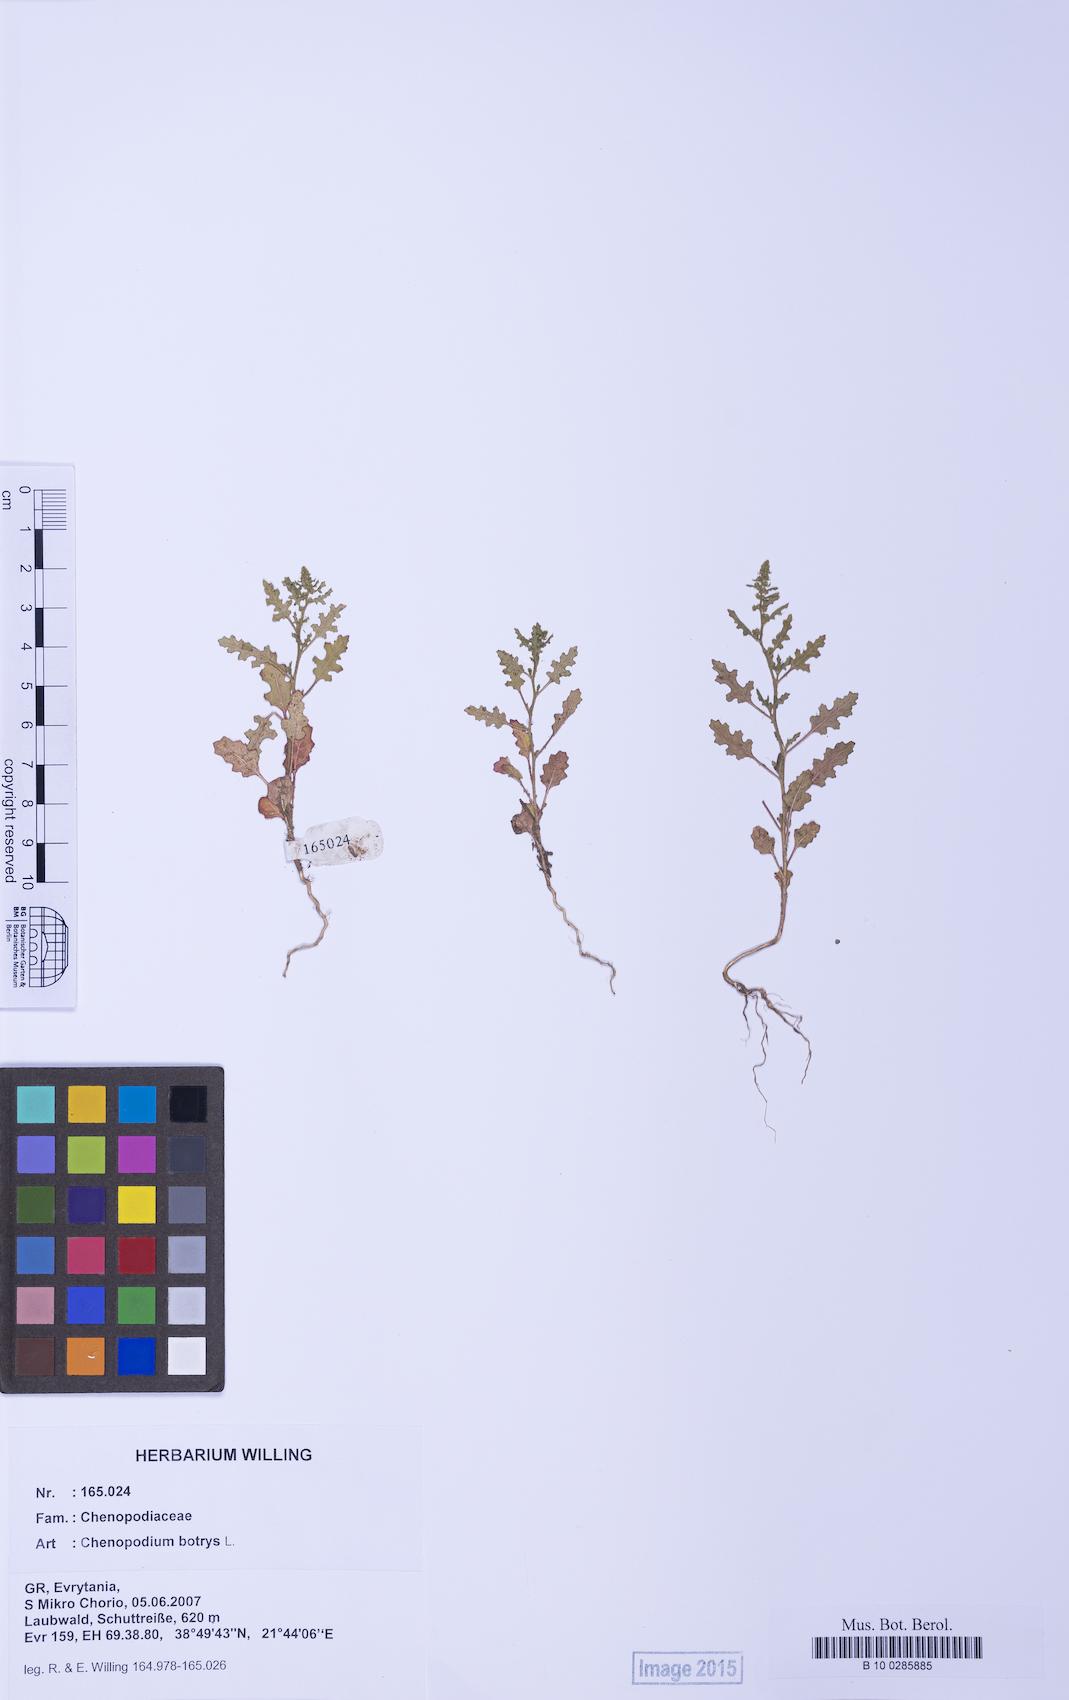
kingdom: Plantae
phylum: Tracheophyta
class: Magnoliopsida
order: Caryophyllales
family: Amaranthaceae
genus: Dysphania
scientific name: Dysphania botrys
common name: Feather-geranium
